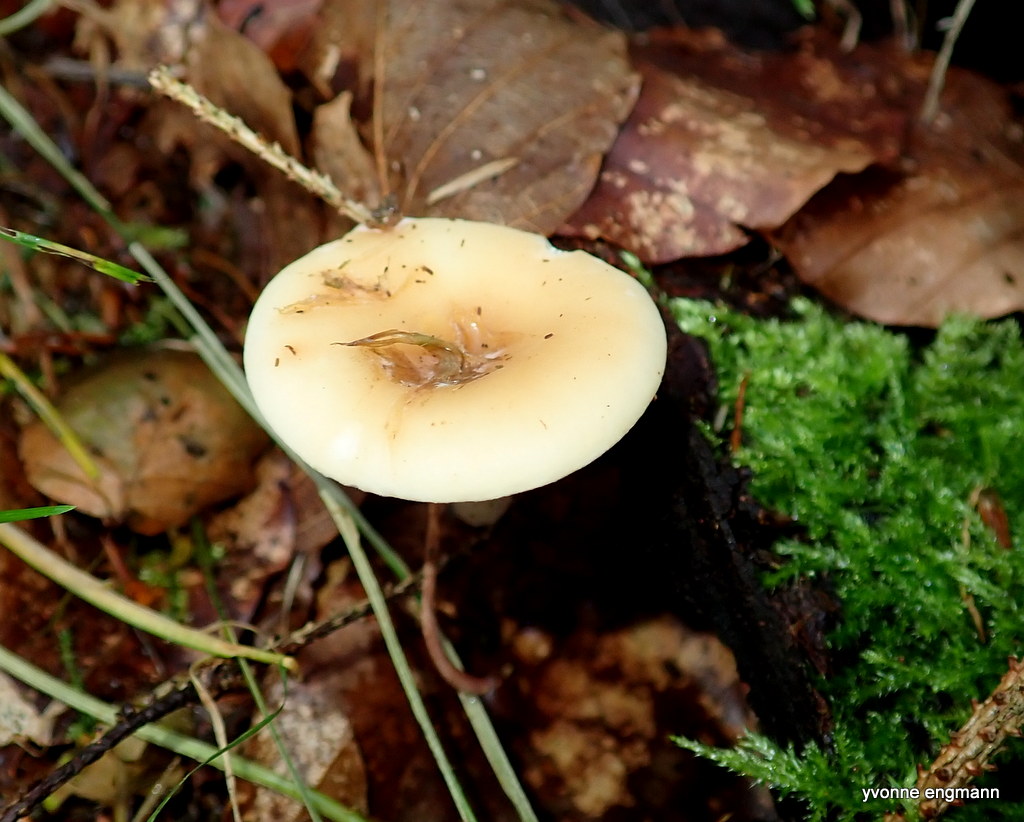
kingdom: Fungi
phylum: Basidiomycota
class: Agaricomycetes
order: Agaricales
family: Tricholomataceae
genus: Infundibulicybe
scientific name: Infundibulicybe gibba
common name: almindelig tragthat
